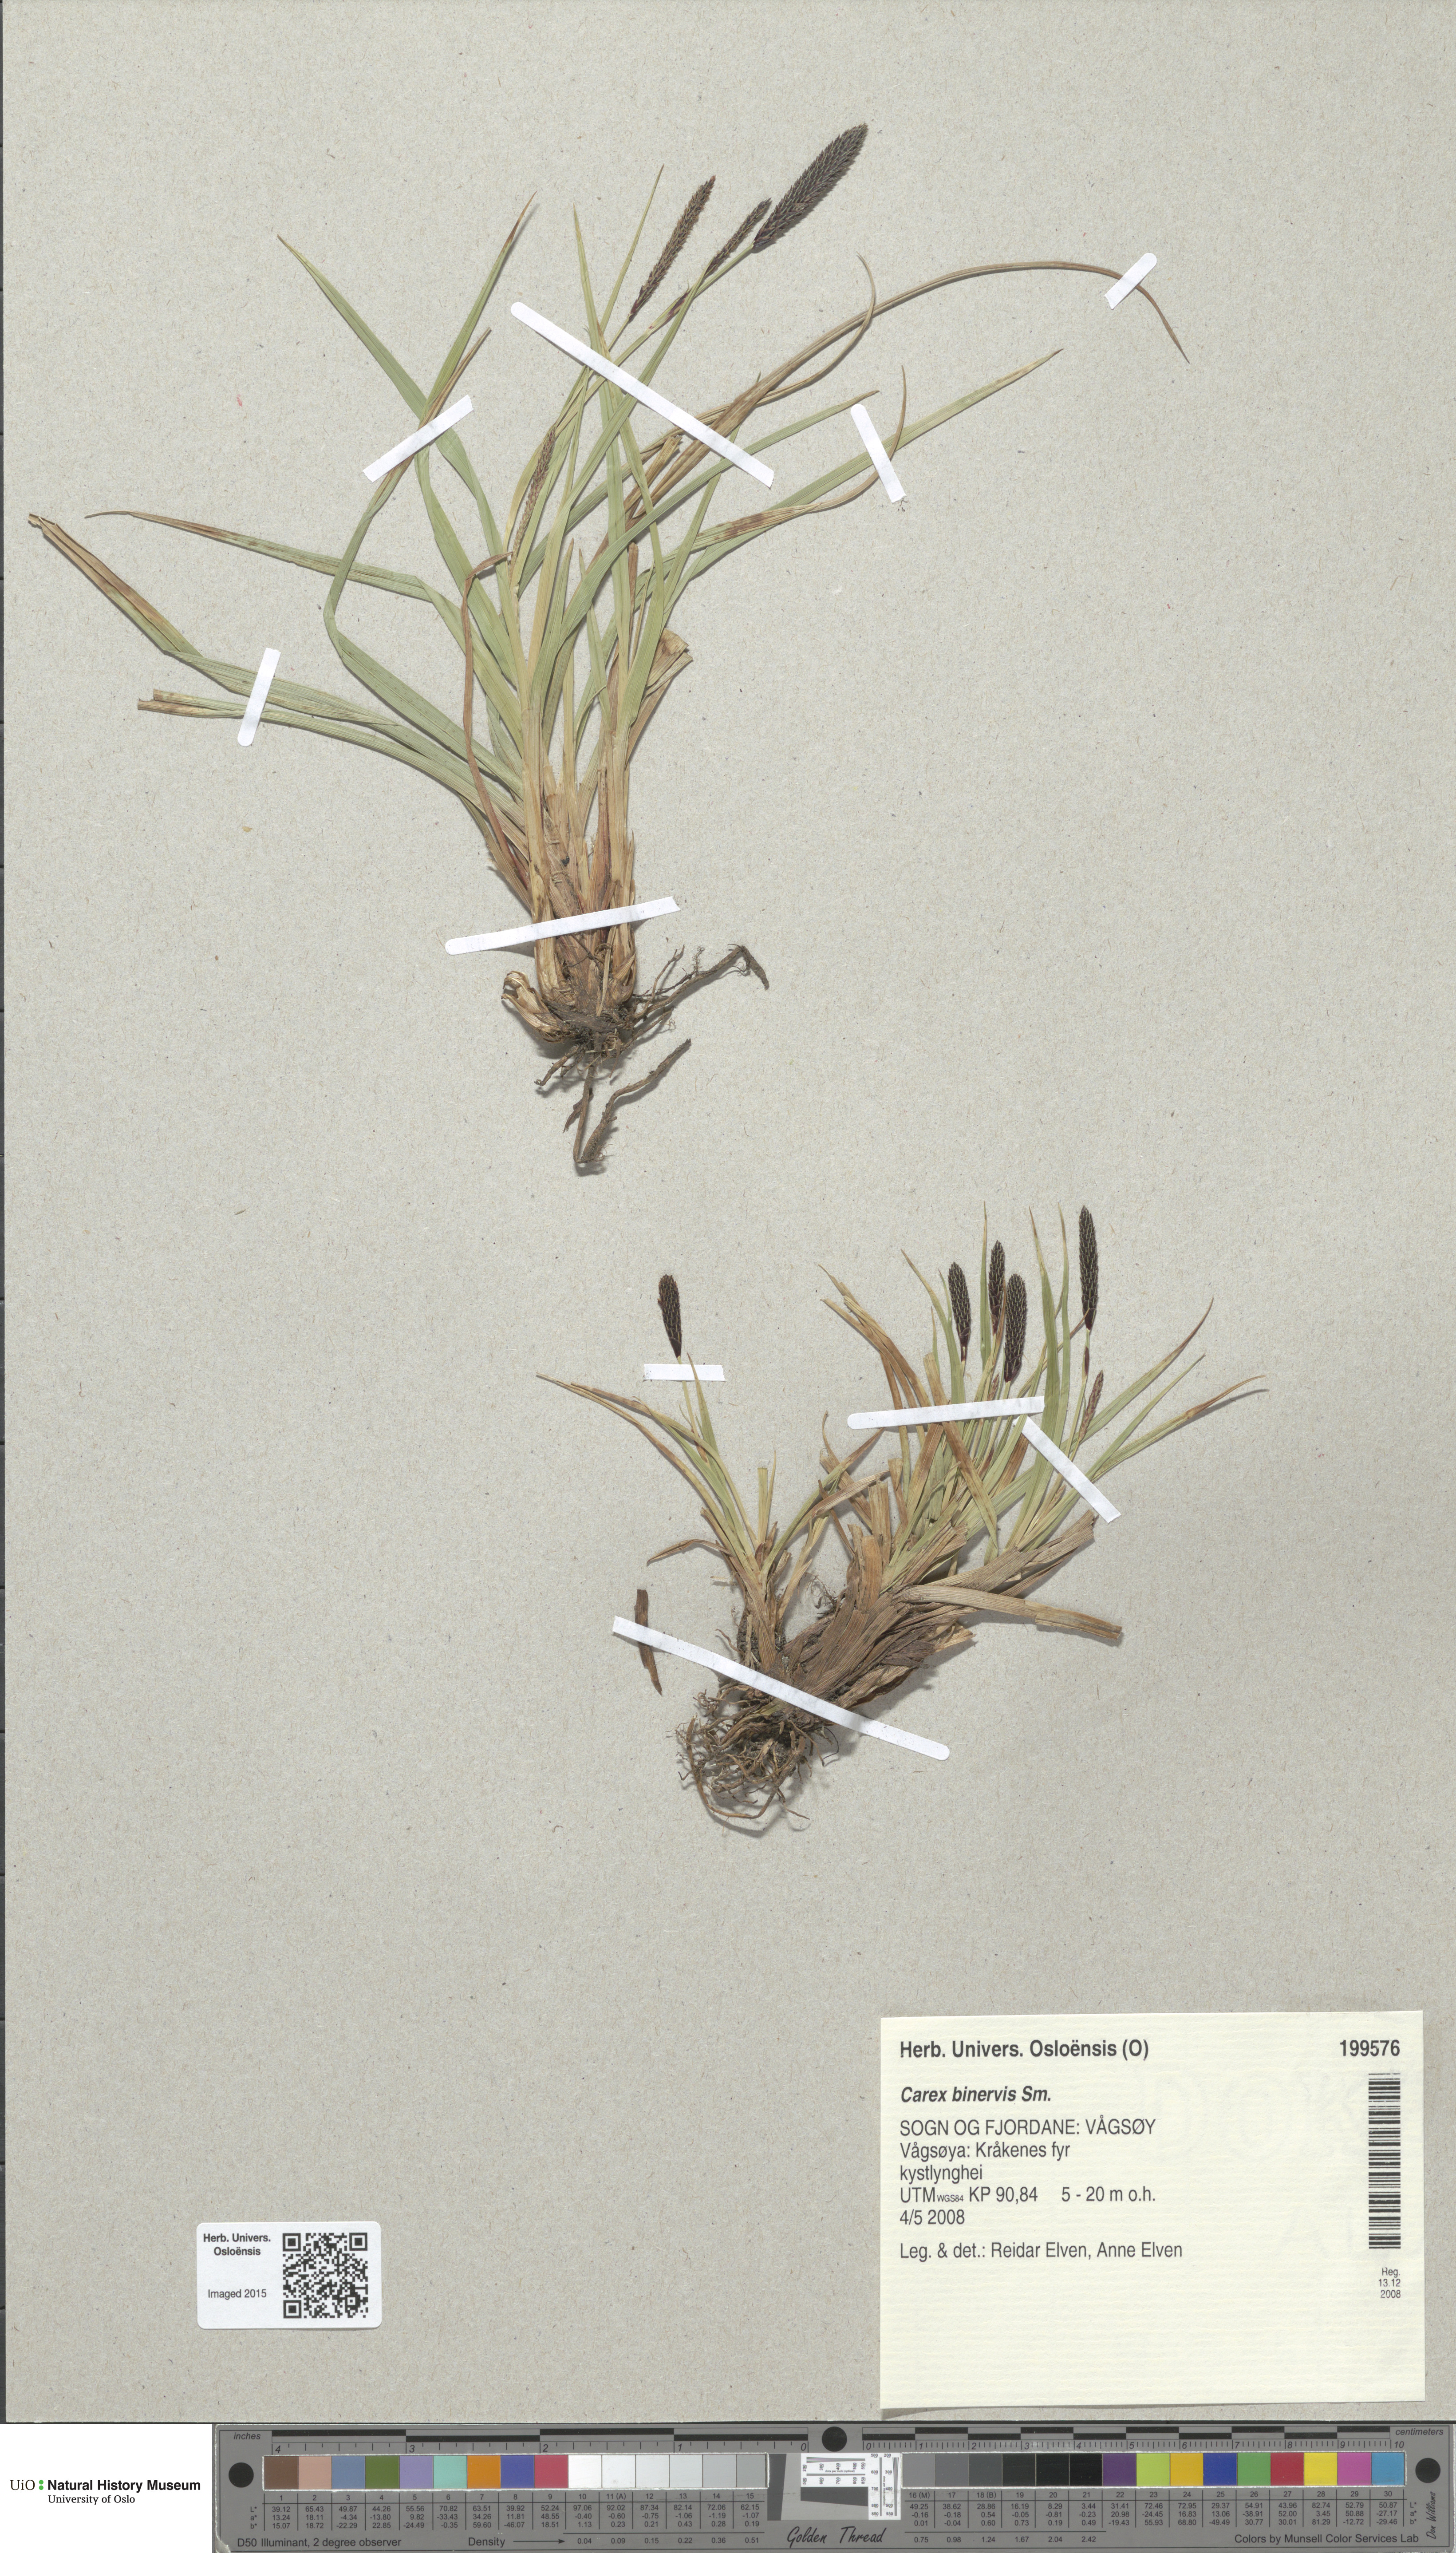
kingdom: Plantae
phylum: Tracheophyta
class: Liliopsida
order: Poales
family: Cyperaceae
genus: Carex
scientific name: Carex binervis
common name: Green-ribbed sedge
